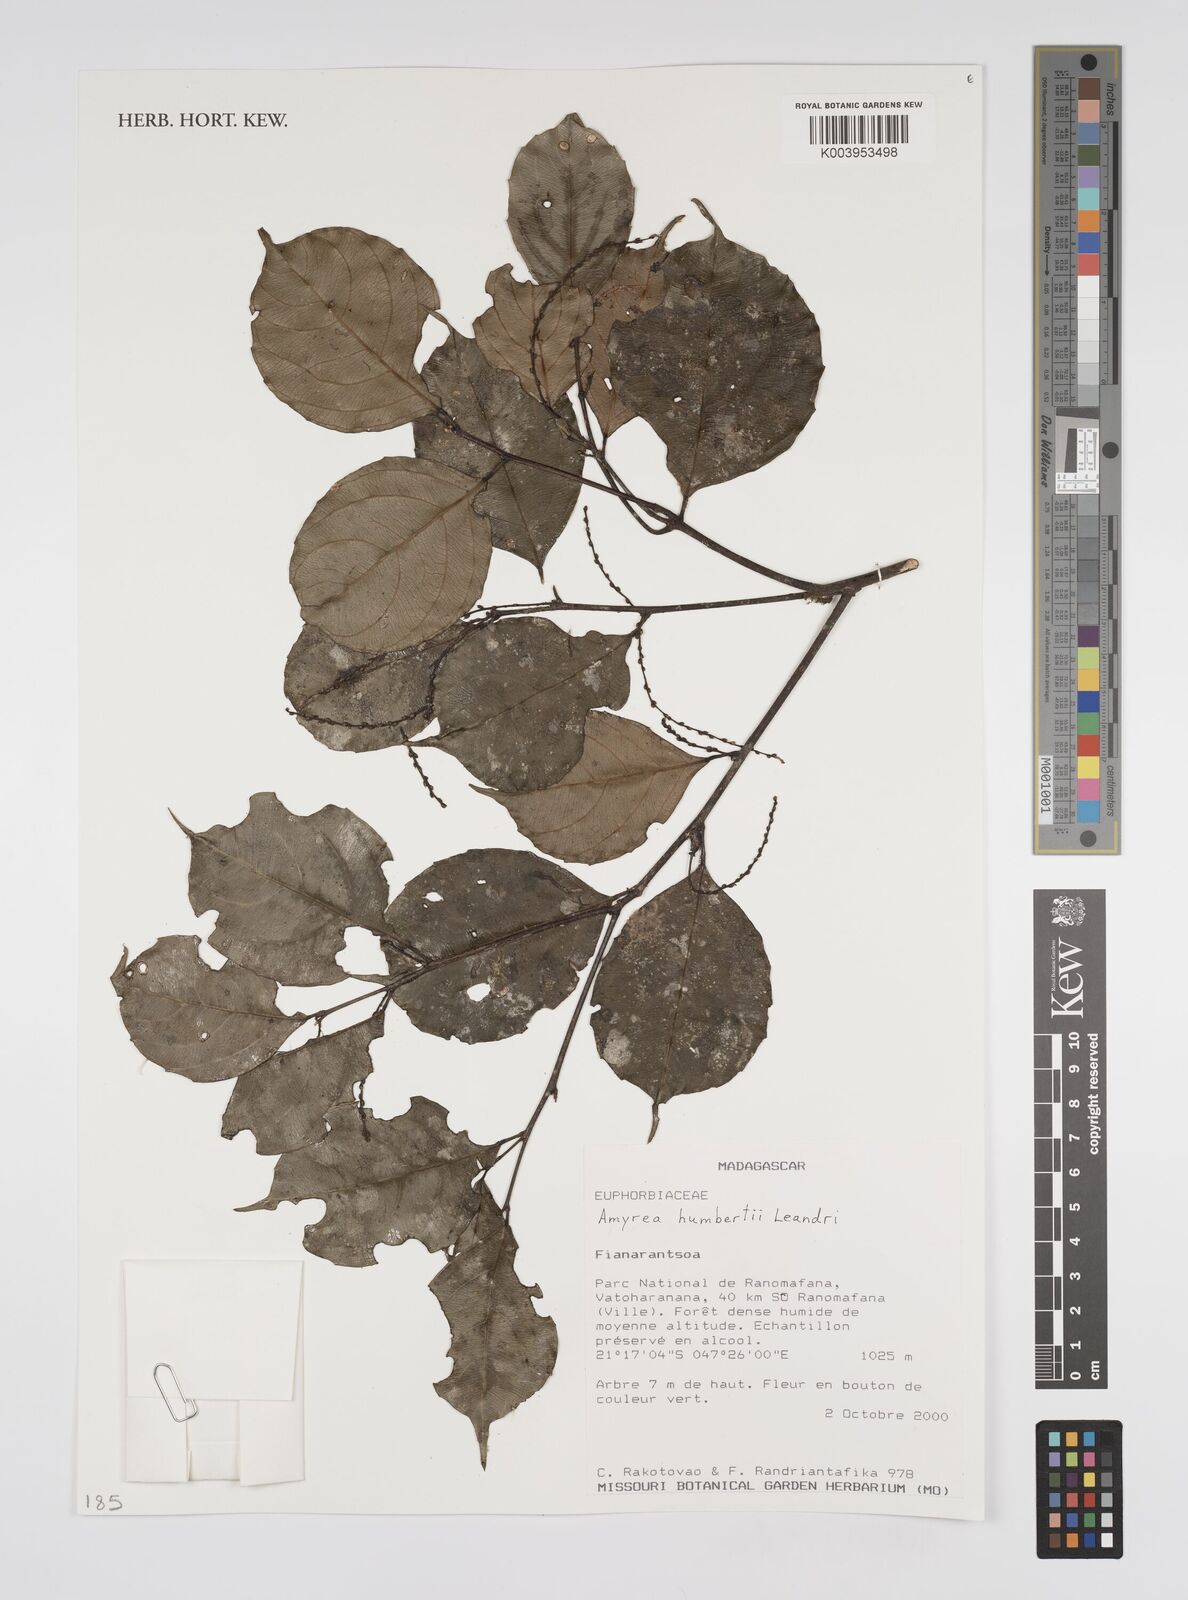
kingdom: Plantae
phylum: Tracheophyta
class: Magnoliopsida
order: Malpighiales
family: Euphorbiaceae
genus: Amyrea
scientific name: Amyrea humbertii
